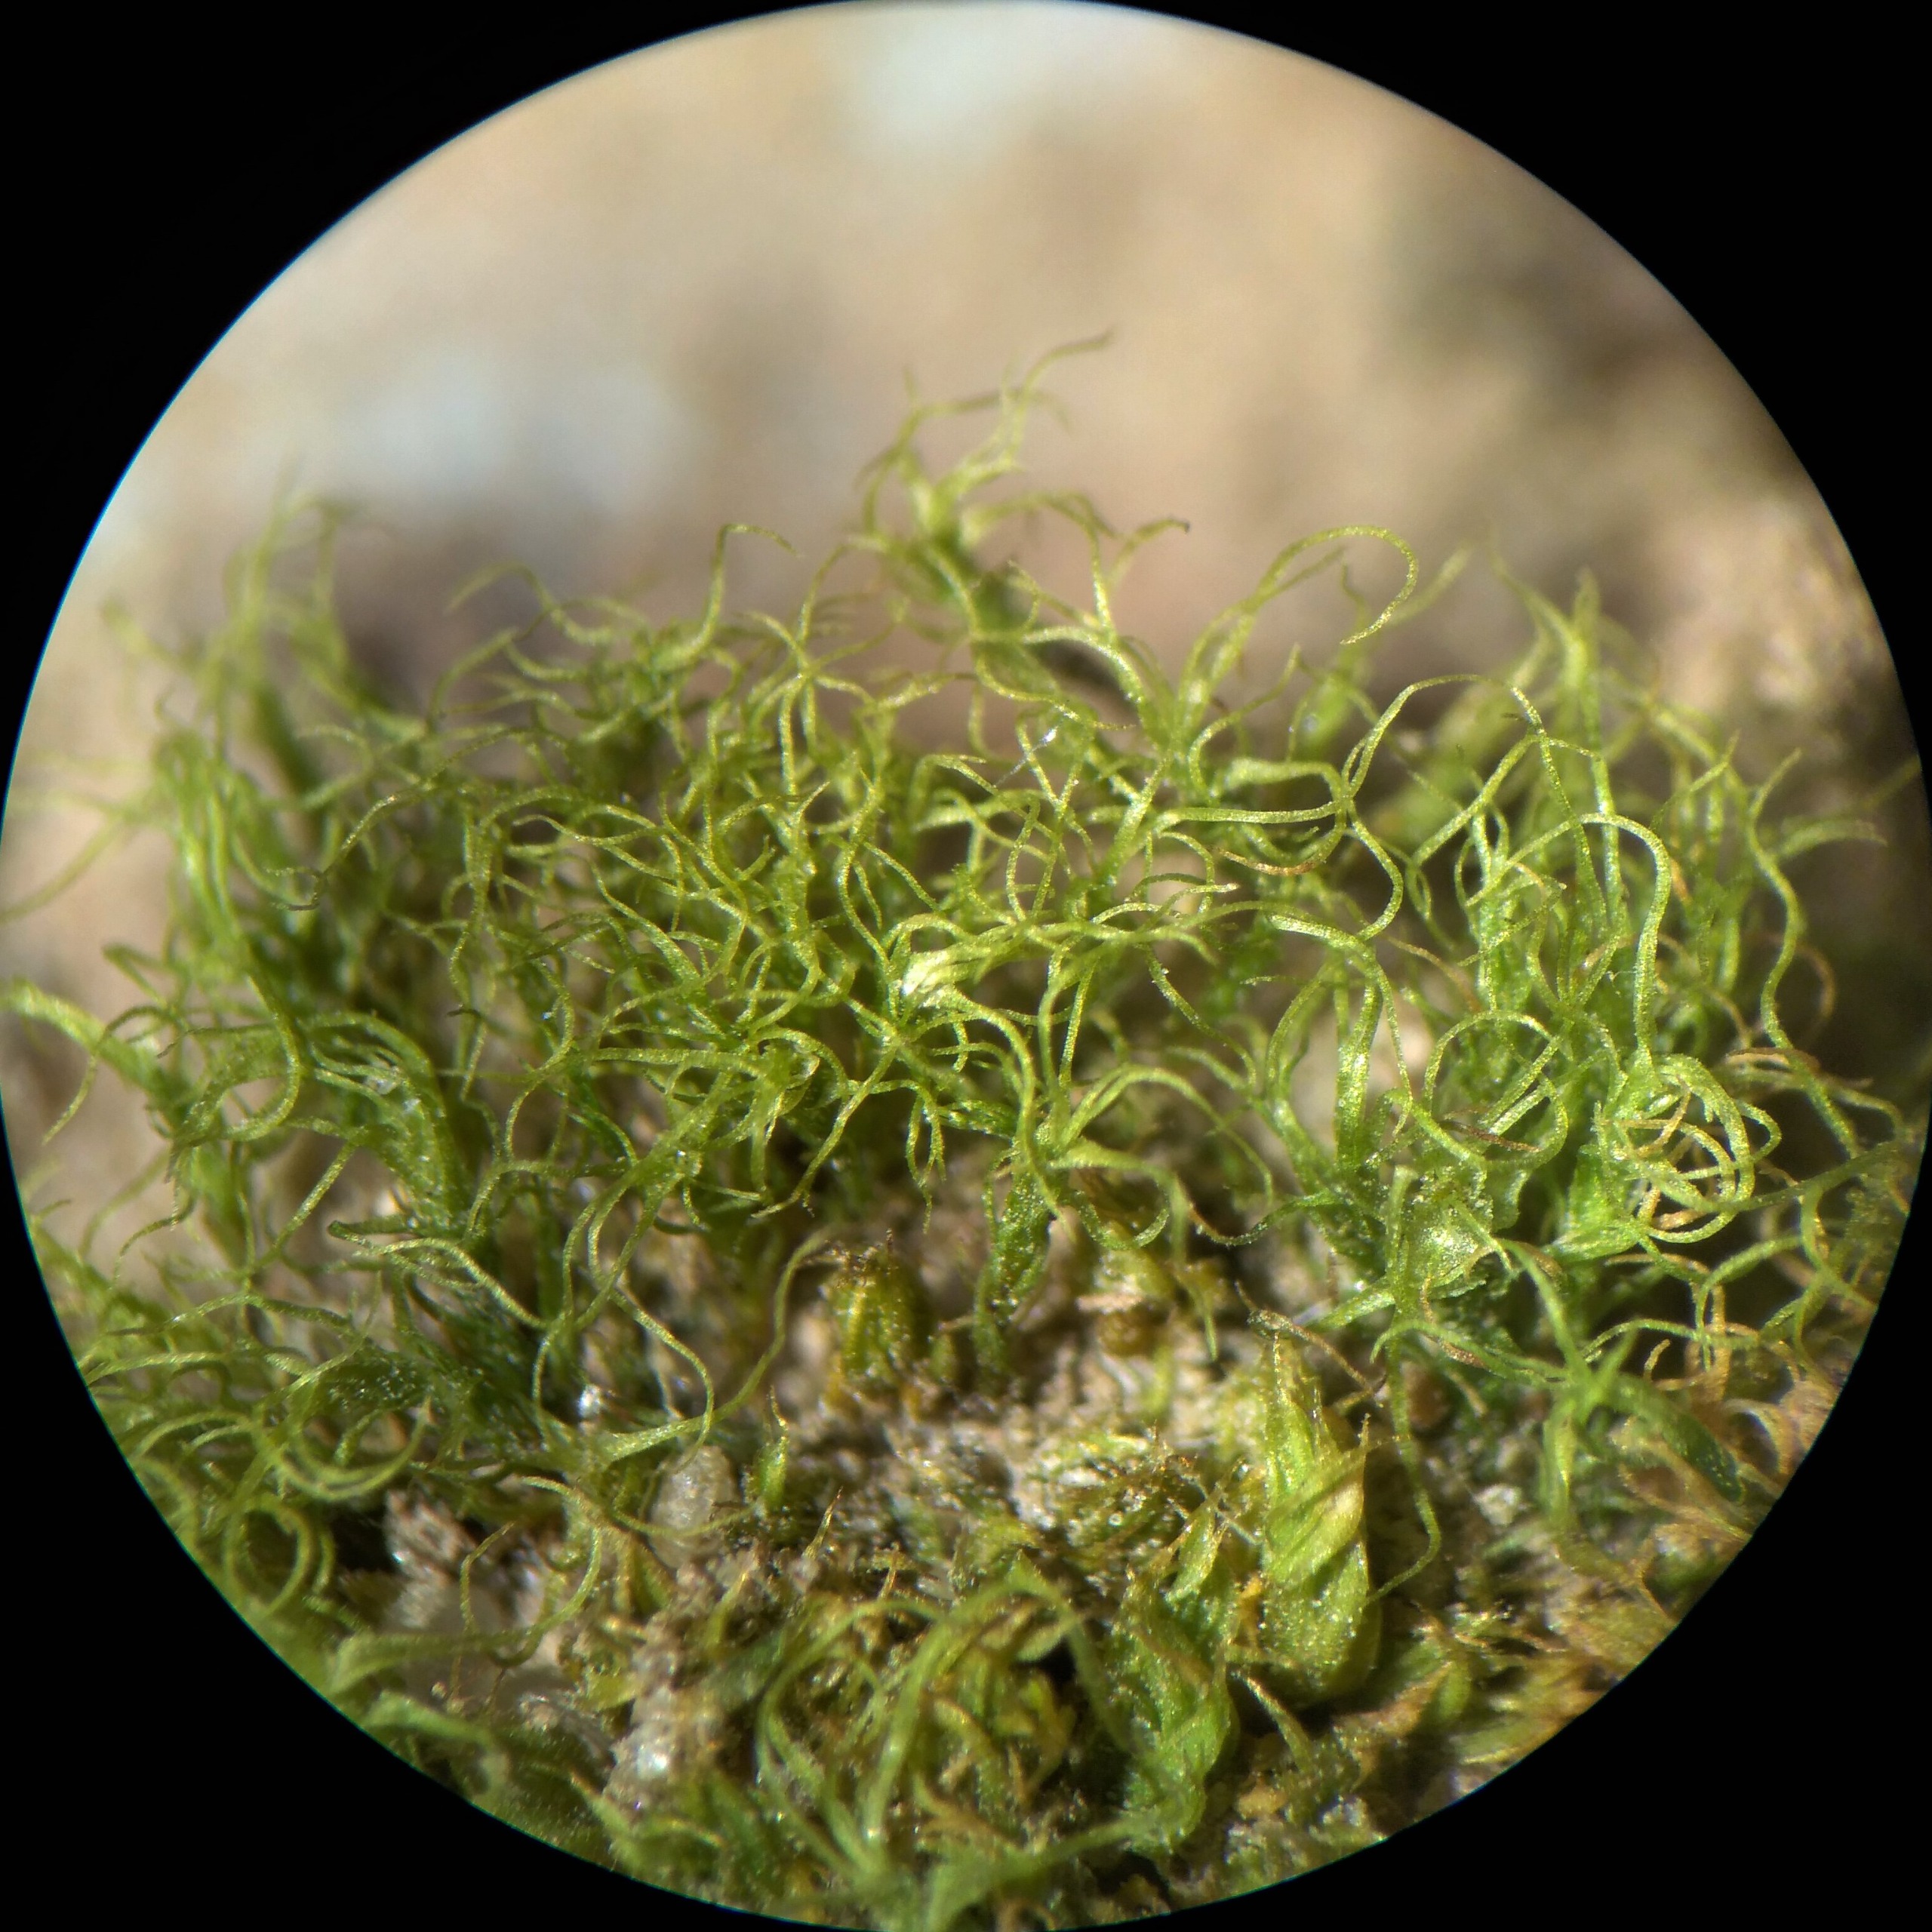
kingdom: Plantae
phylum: Bryophyta
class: Bryopsida
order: Dicranales
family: Ditrichaceae
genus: Trichodon
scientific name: Trichodon cylindricus
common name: Udspærret hårtand
